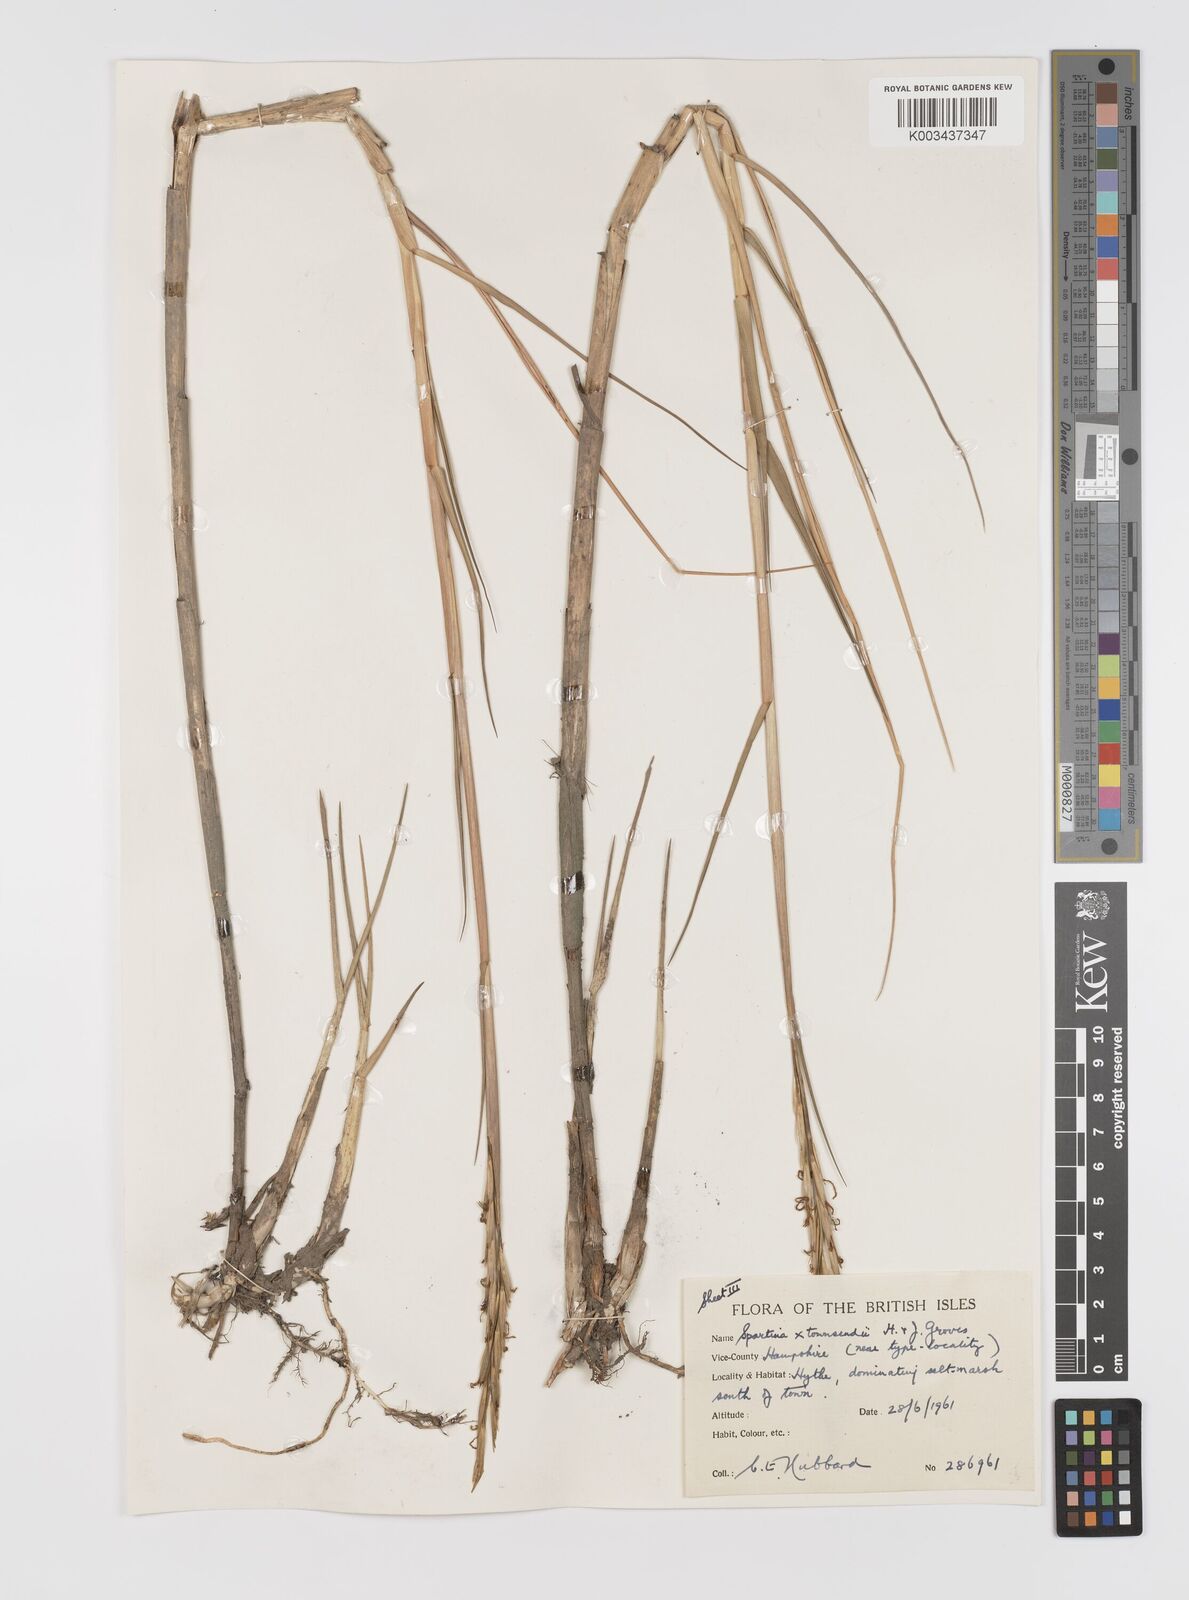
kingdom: Plantae
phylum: Tracheophyta
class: Liliopsida
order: Poales
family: Poaceae
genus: Sporobolus
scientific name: Sporobolus townsendii
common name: Townsend's cordgrass
